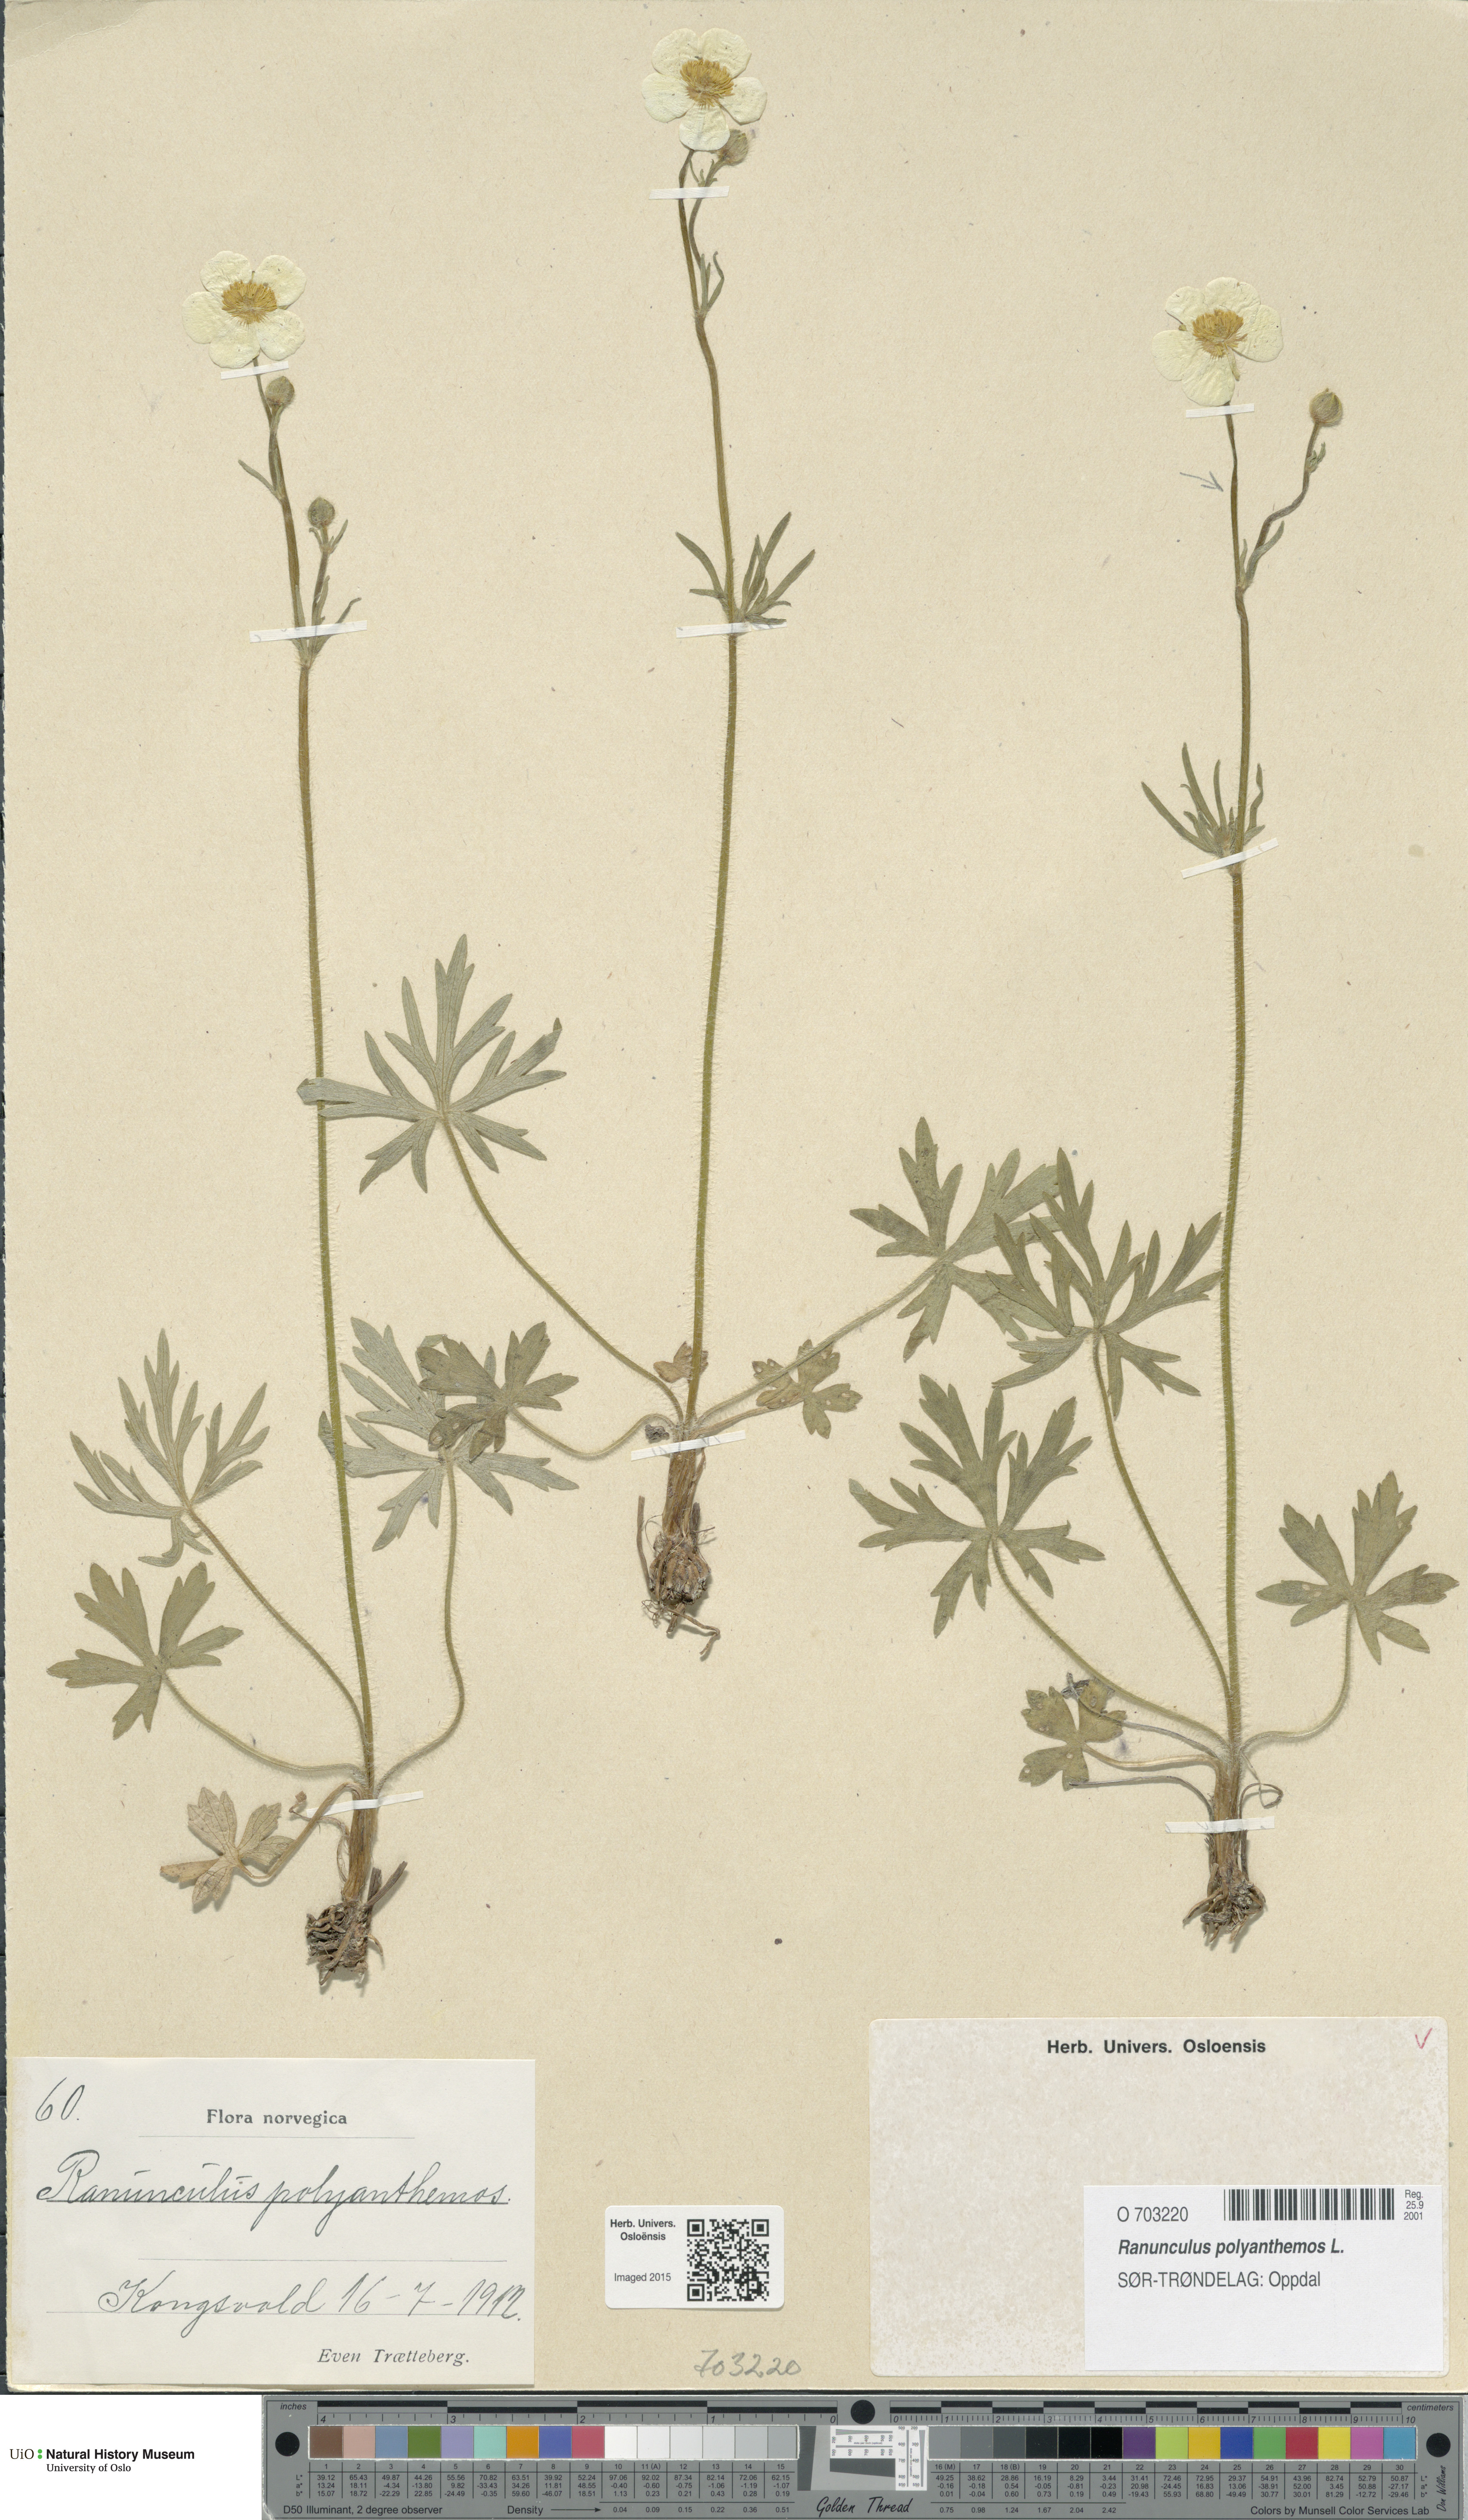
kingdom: Plantae
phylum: Tracheophyta
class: Magnoliopsida
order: Ranunculales
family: Ranunculaceae
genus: Ranunculus
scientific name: Ranunculus polyanthemos
